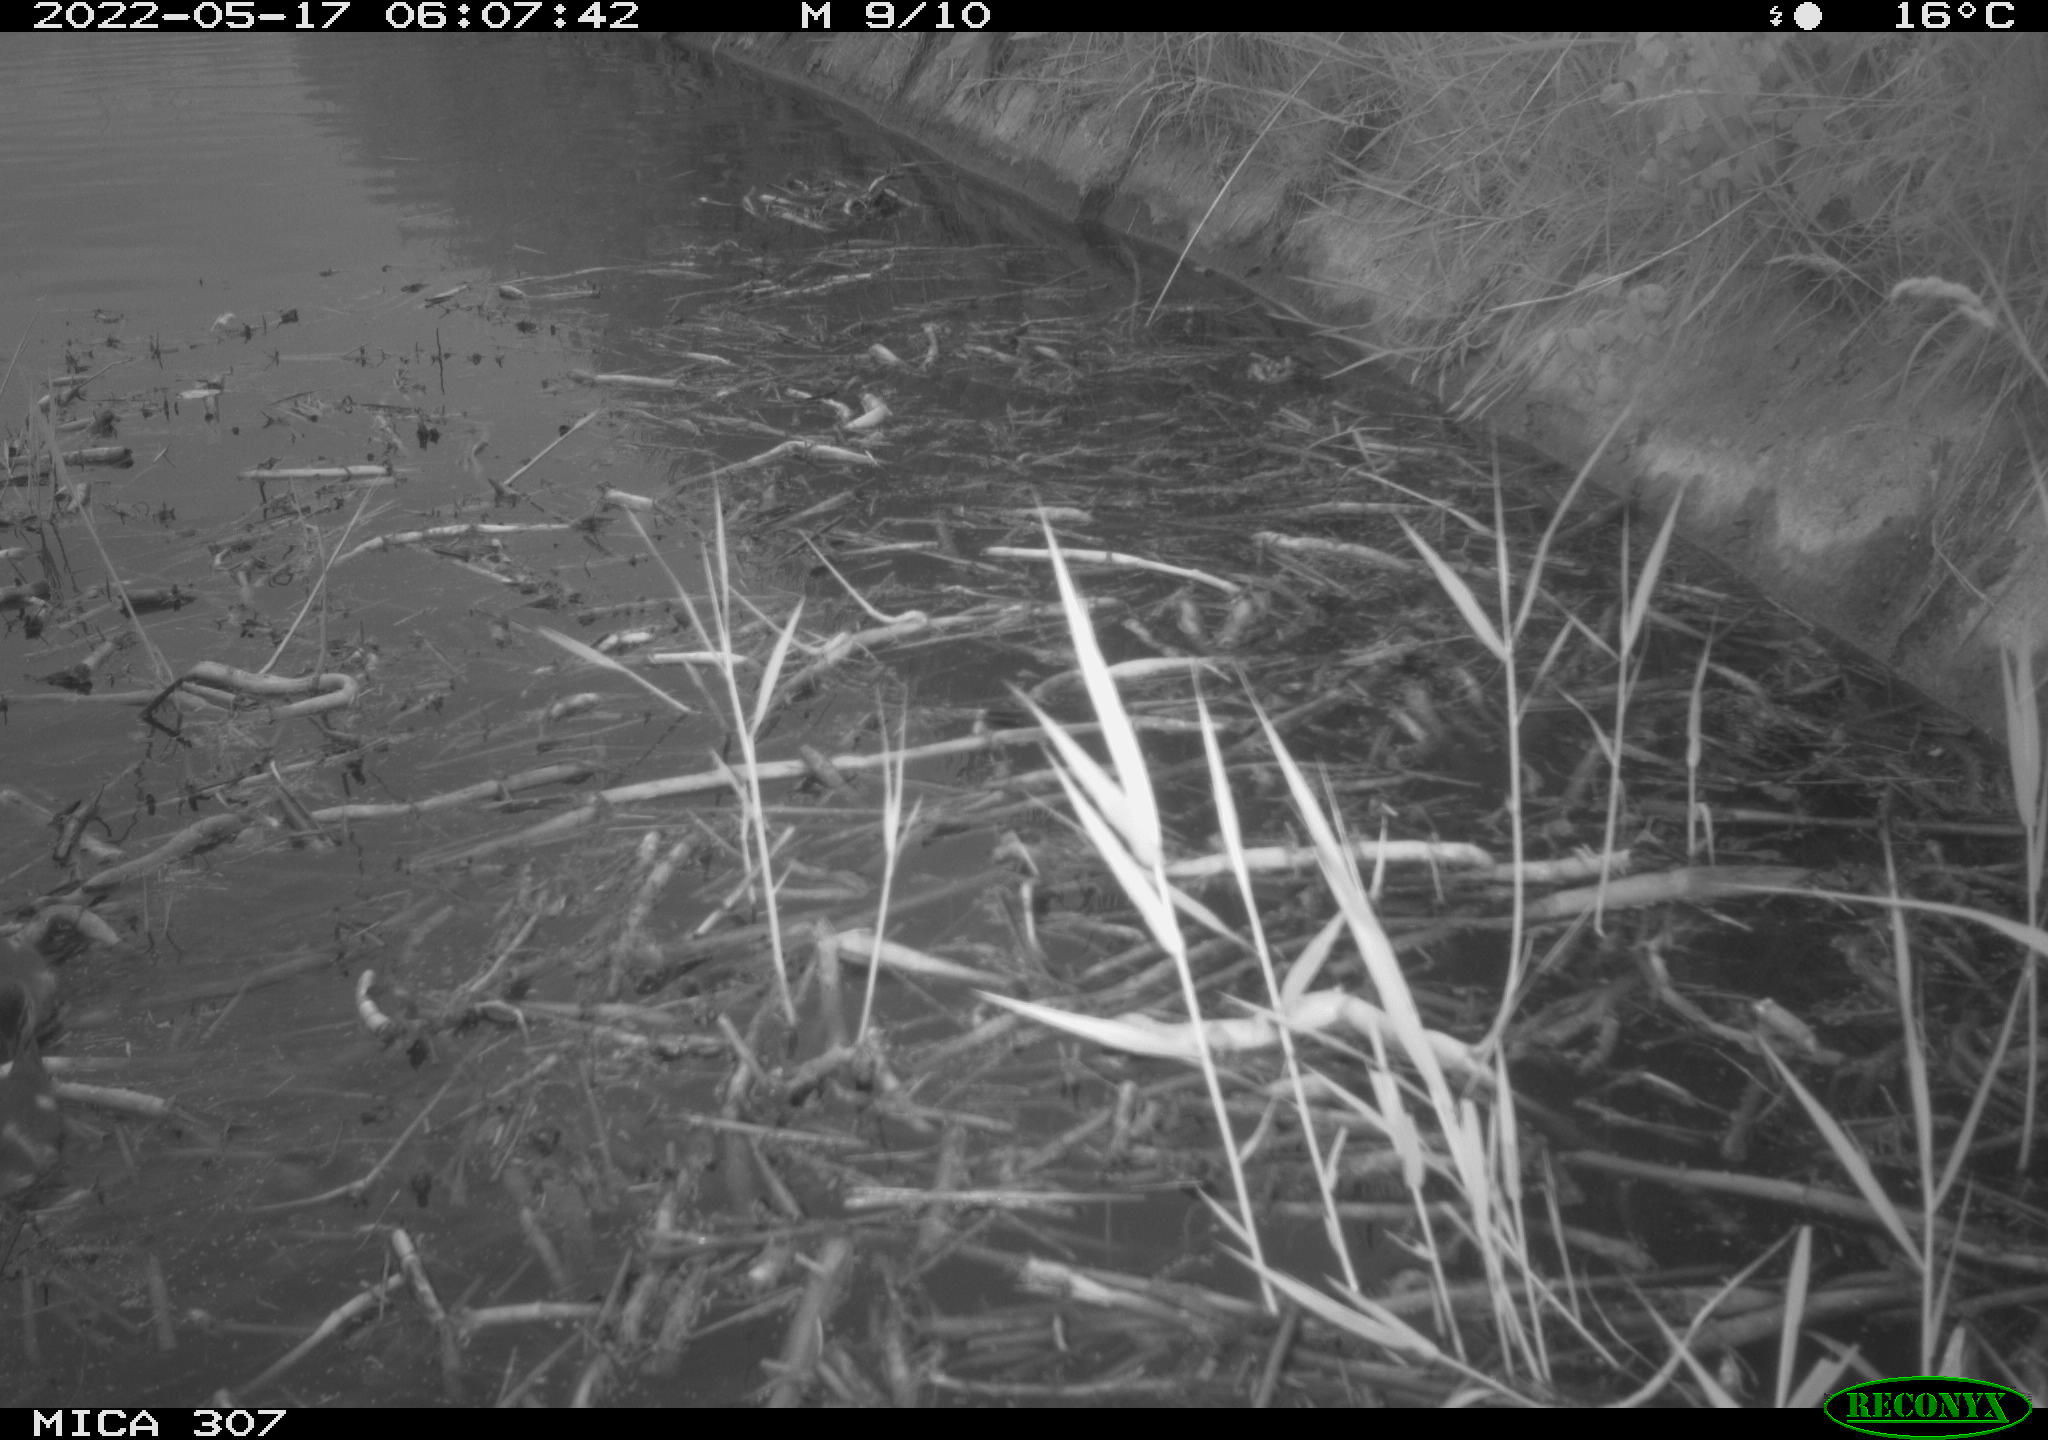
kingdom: Animalia
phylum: Chordata
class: Aves
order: Anseriformes
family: Anatidae
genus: Anas
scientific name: Anas platyrhynchos
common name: Mallard
